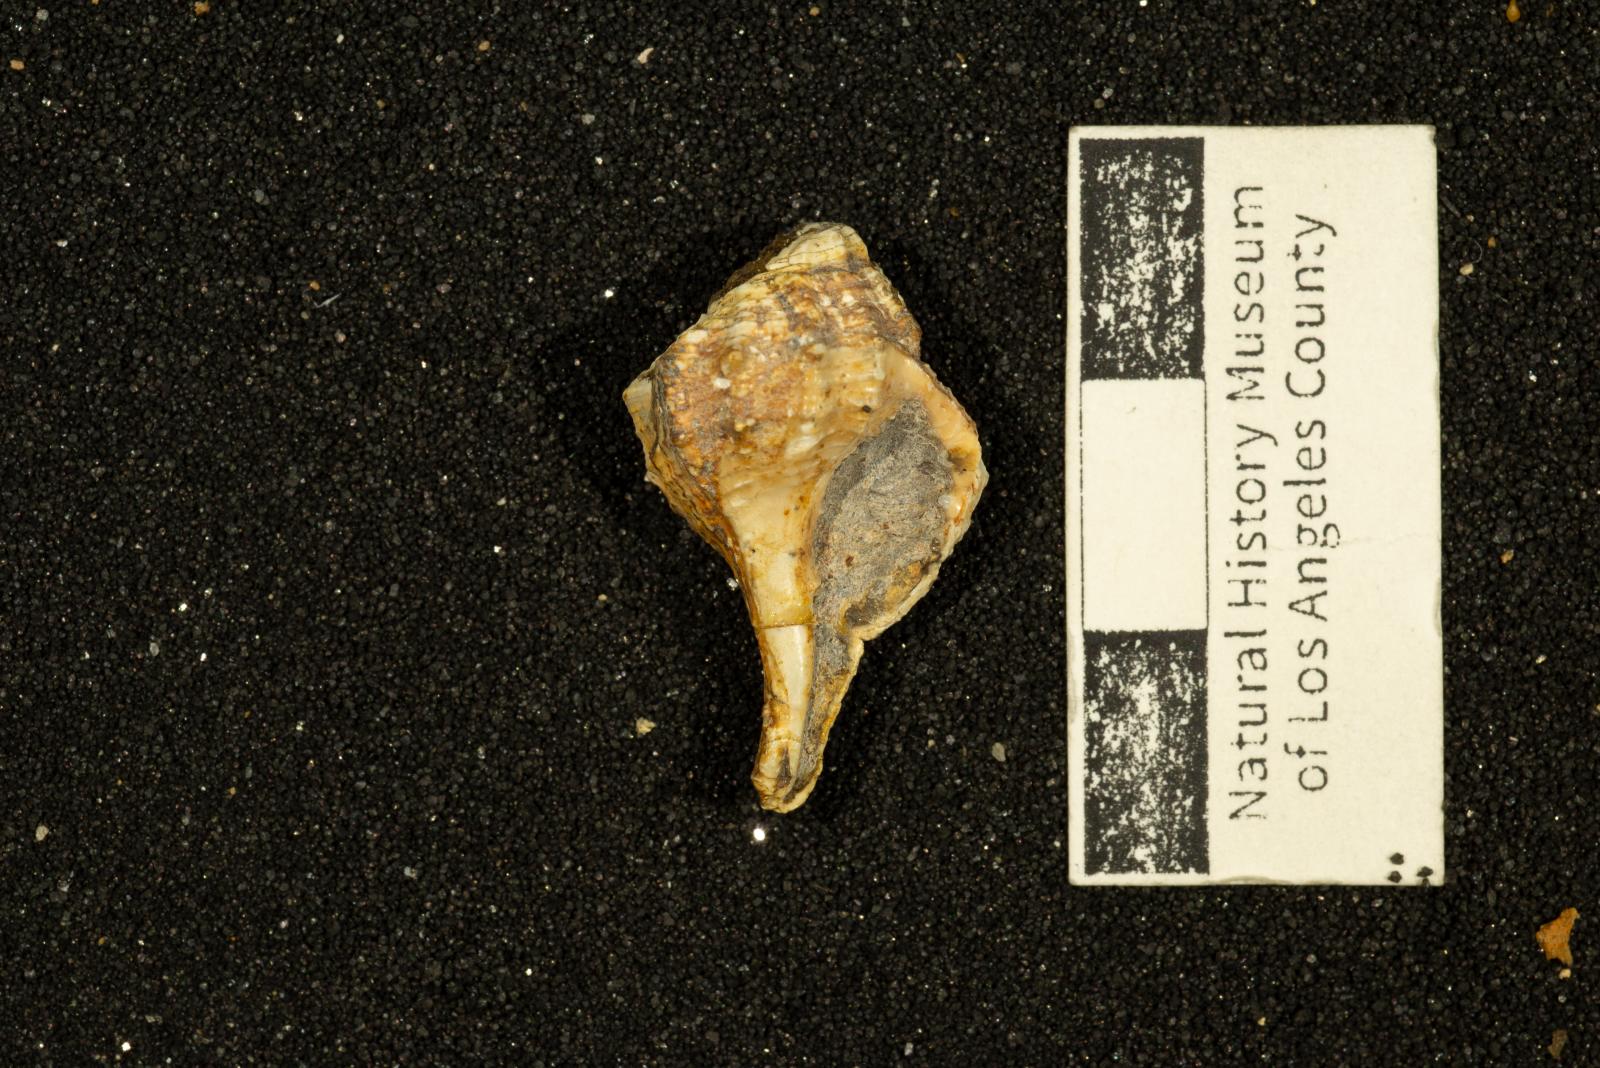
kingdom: Animalia
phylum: Mollusca
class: Gastropoda
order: Neogastropoda
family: Perissityidae
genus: Murphitys
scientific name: Murphitys corona
